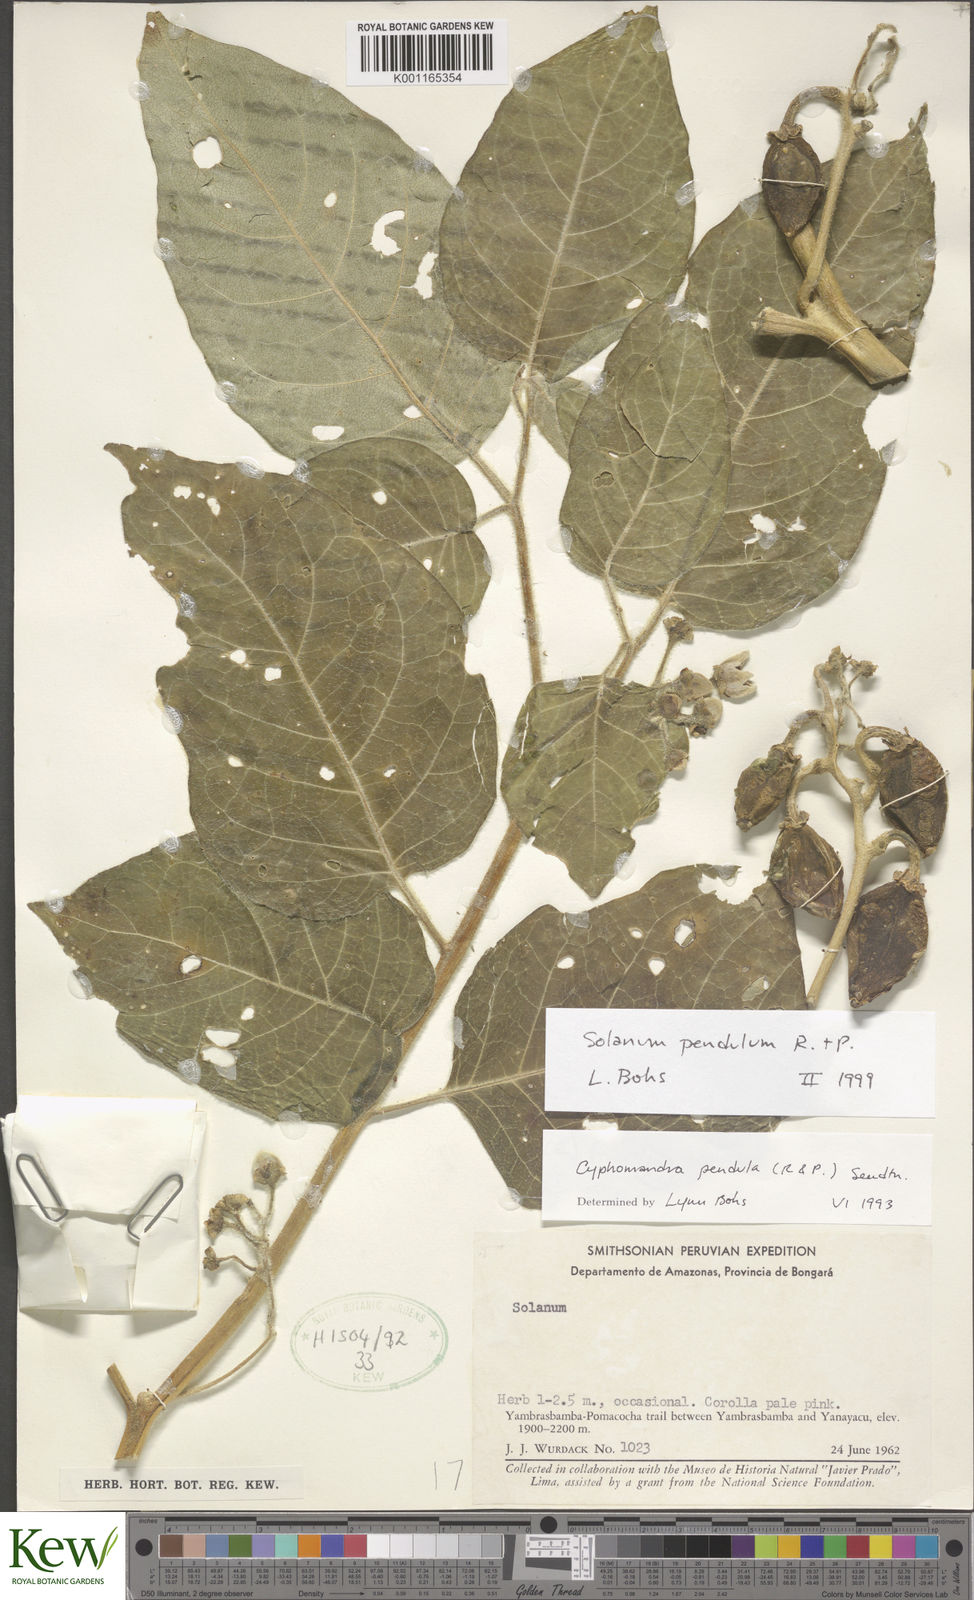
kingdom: Plantae
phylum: Tracheophyta
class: Magnoliopsida
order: Solanales
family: Solanaceae
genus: Solanum
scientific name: Solanum pendulum
